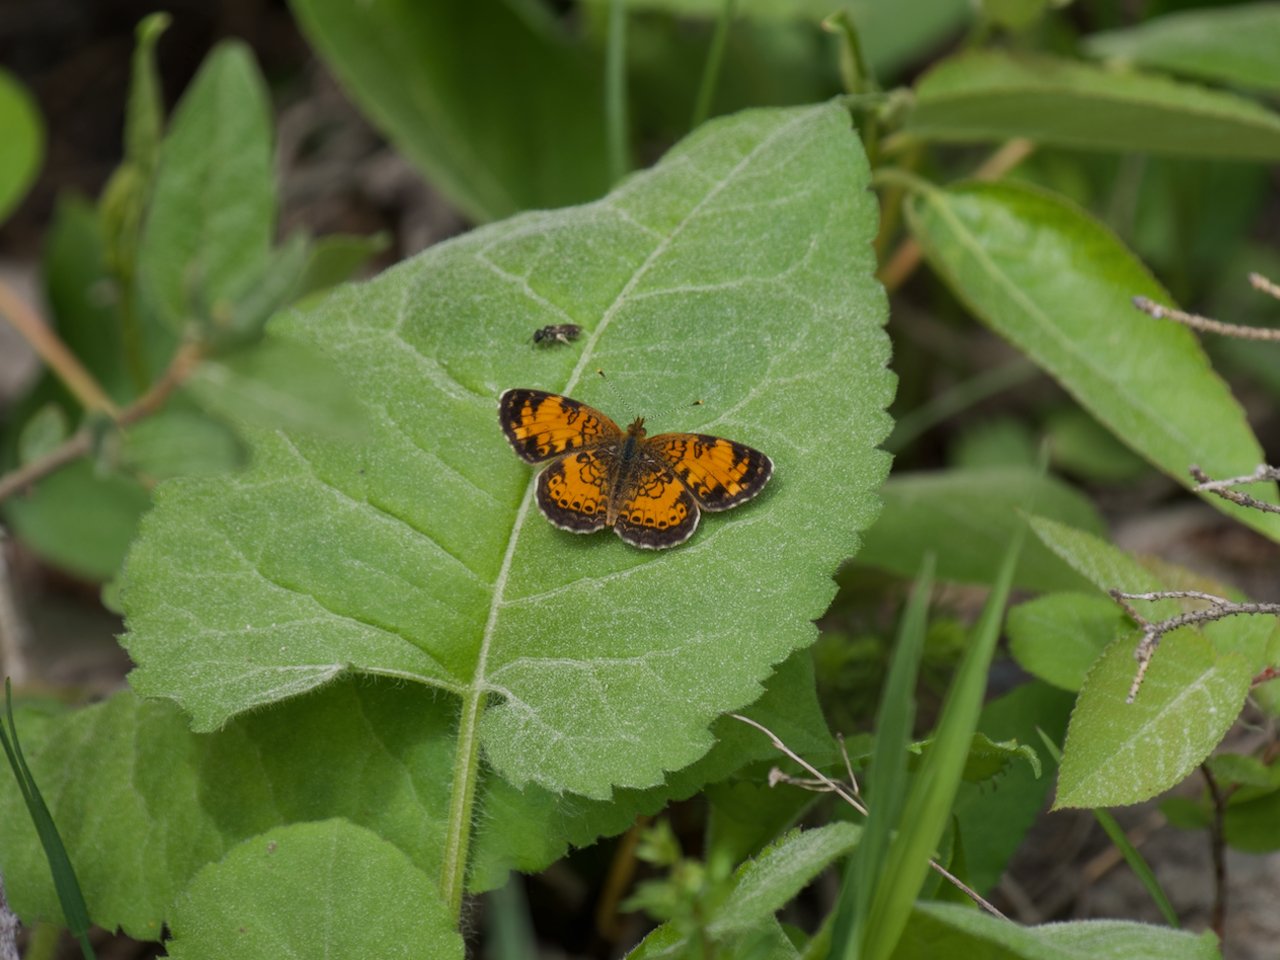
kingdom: Animalia
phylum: Arthropoda
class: Insecta
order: Lepidoptera
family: Nymphalidae
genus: Phyciodes
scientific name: Phyciodes tharos
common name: Northern Crescent
